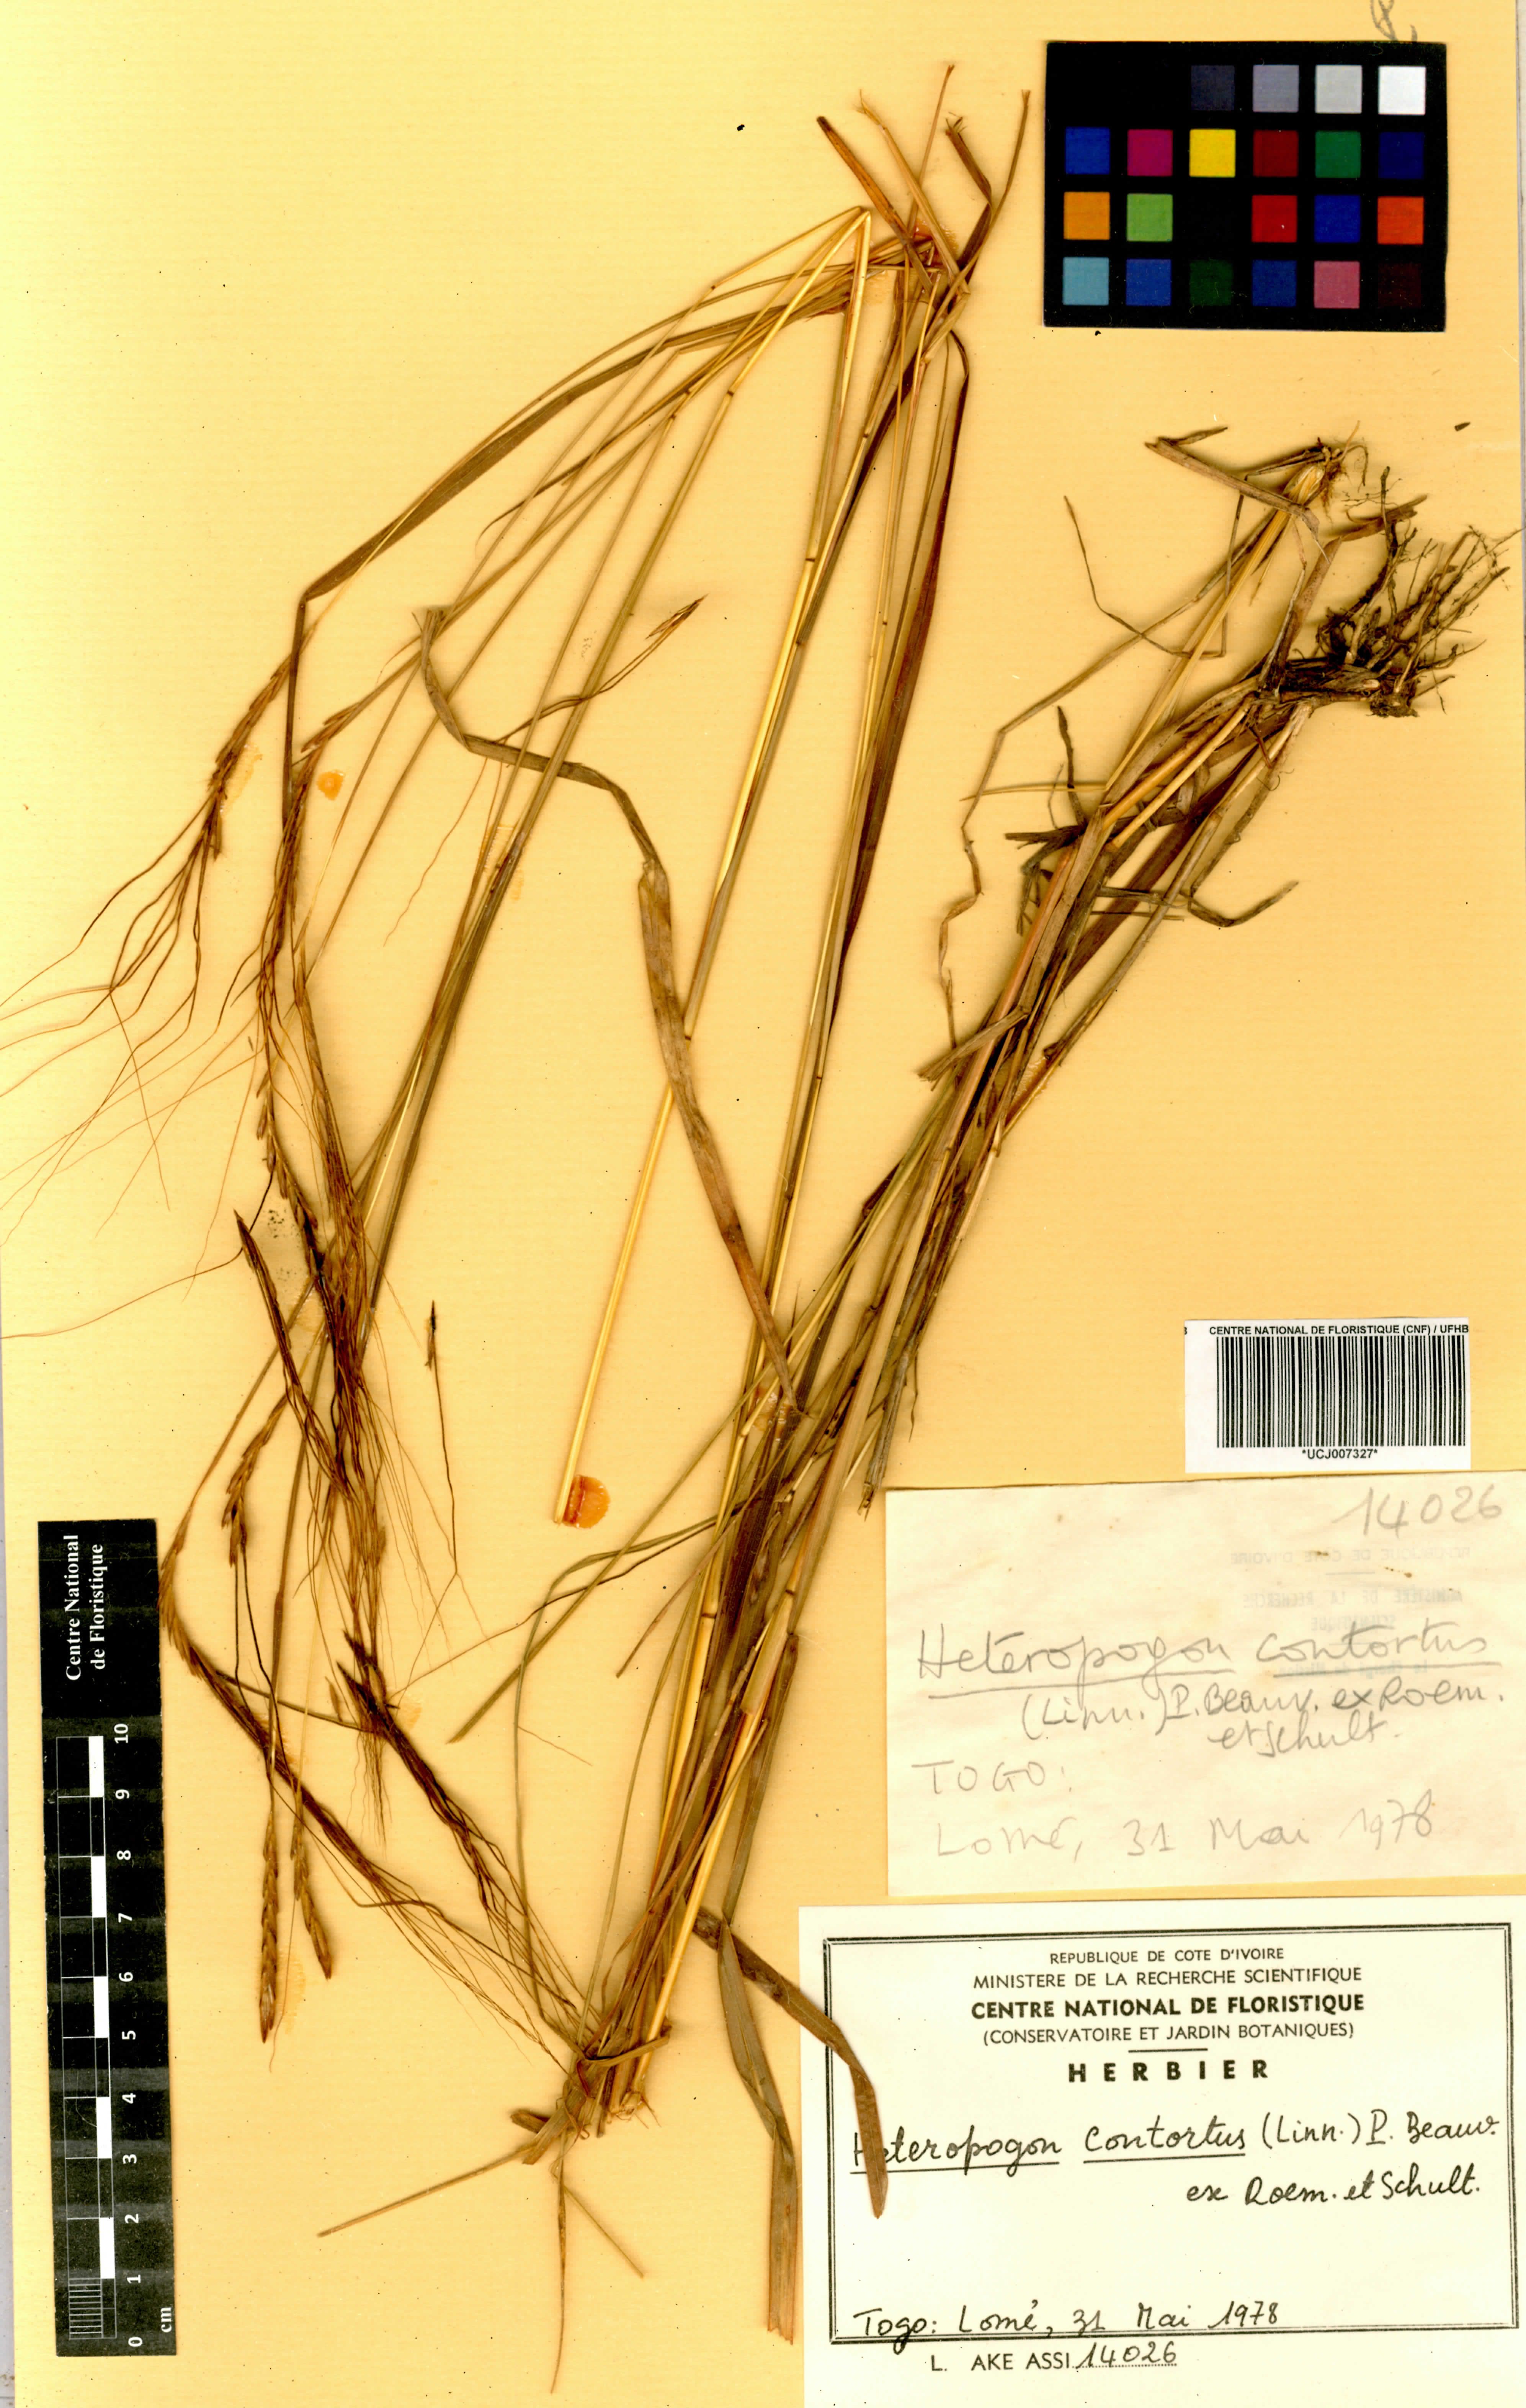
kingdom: Plantae
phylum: Tracheophyta
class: Liliopsida
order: Poales
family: Poaceae
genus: Heteropogon
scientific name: Heteropogon contortus
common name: Tanglehead
